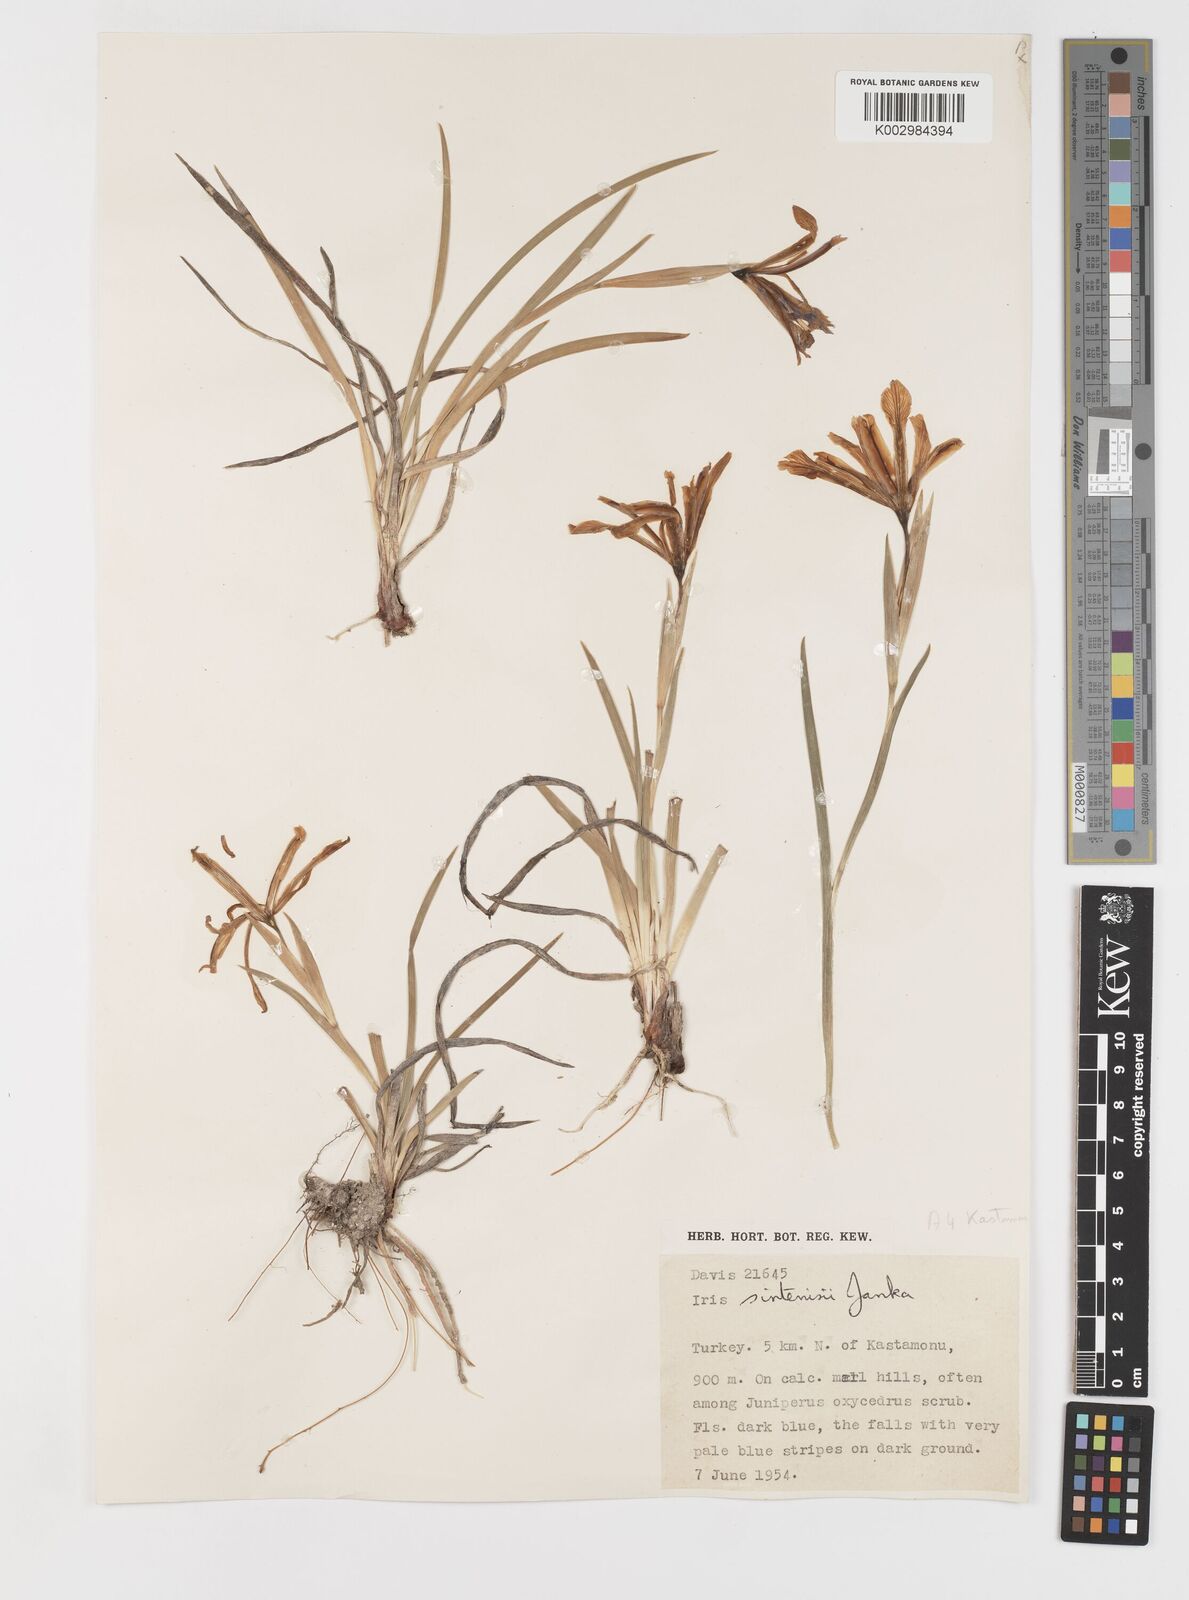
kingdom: Plantae
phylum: Tracheophyta
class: Liliopsida
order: Asparagales
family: Iridaceae
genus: Iris
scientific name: Iris sintenisii
